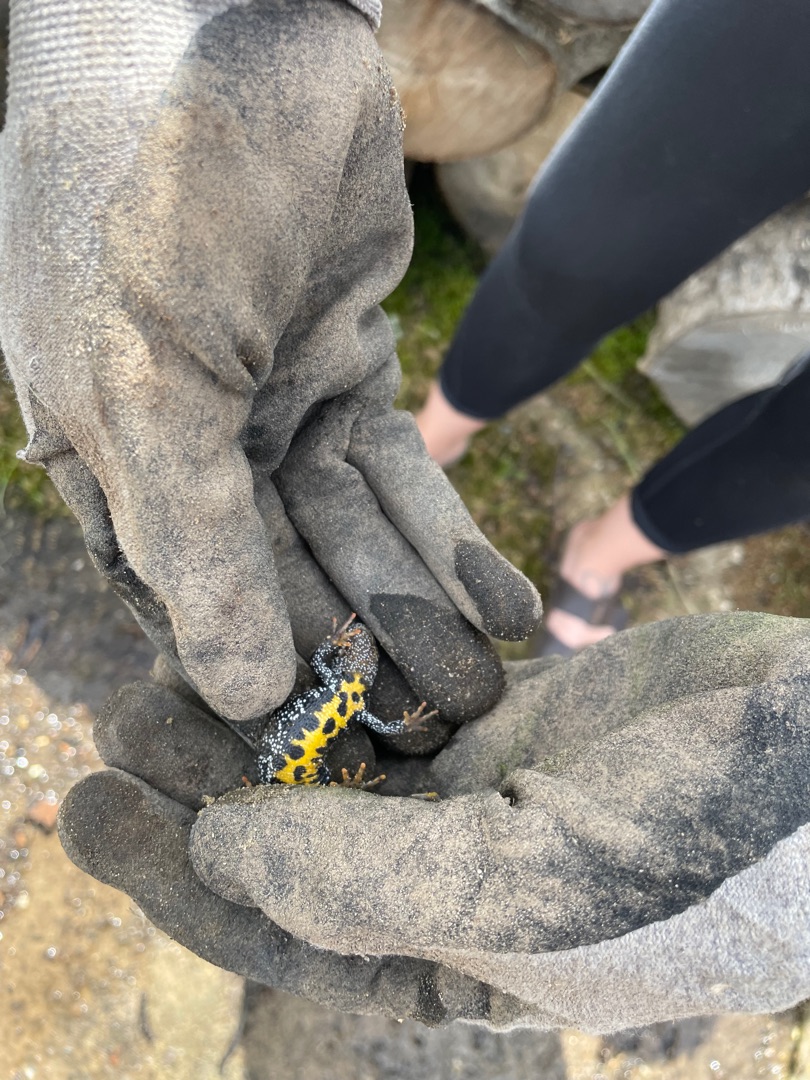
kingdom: Animalia
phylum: Chordata
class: Amphibia
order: Caudata
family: Salamandridae
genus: Triturus
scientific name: Triturus cristatus
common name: Stor vandsalamander
